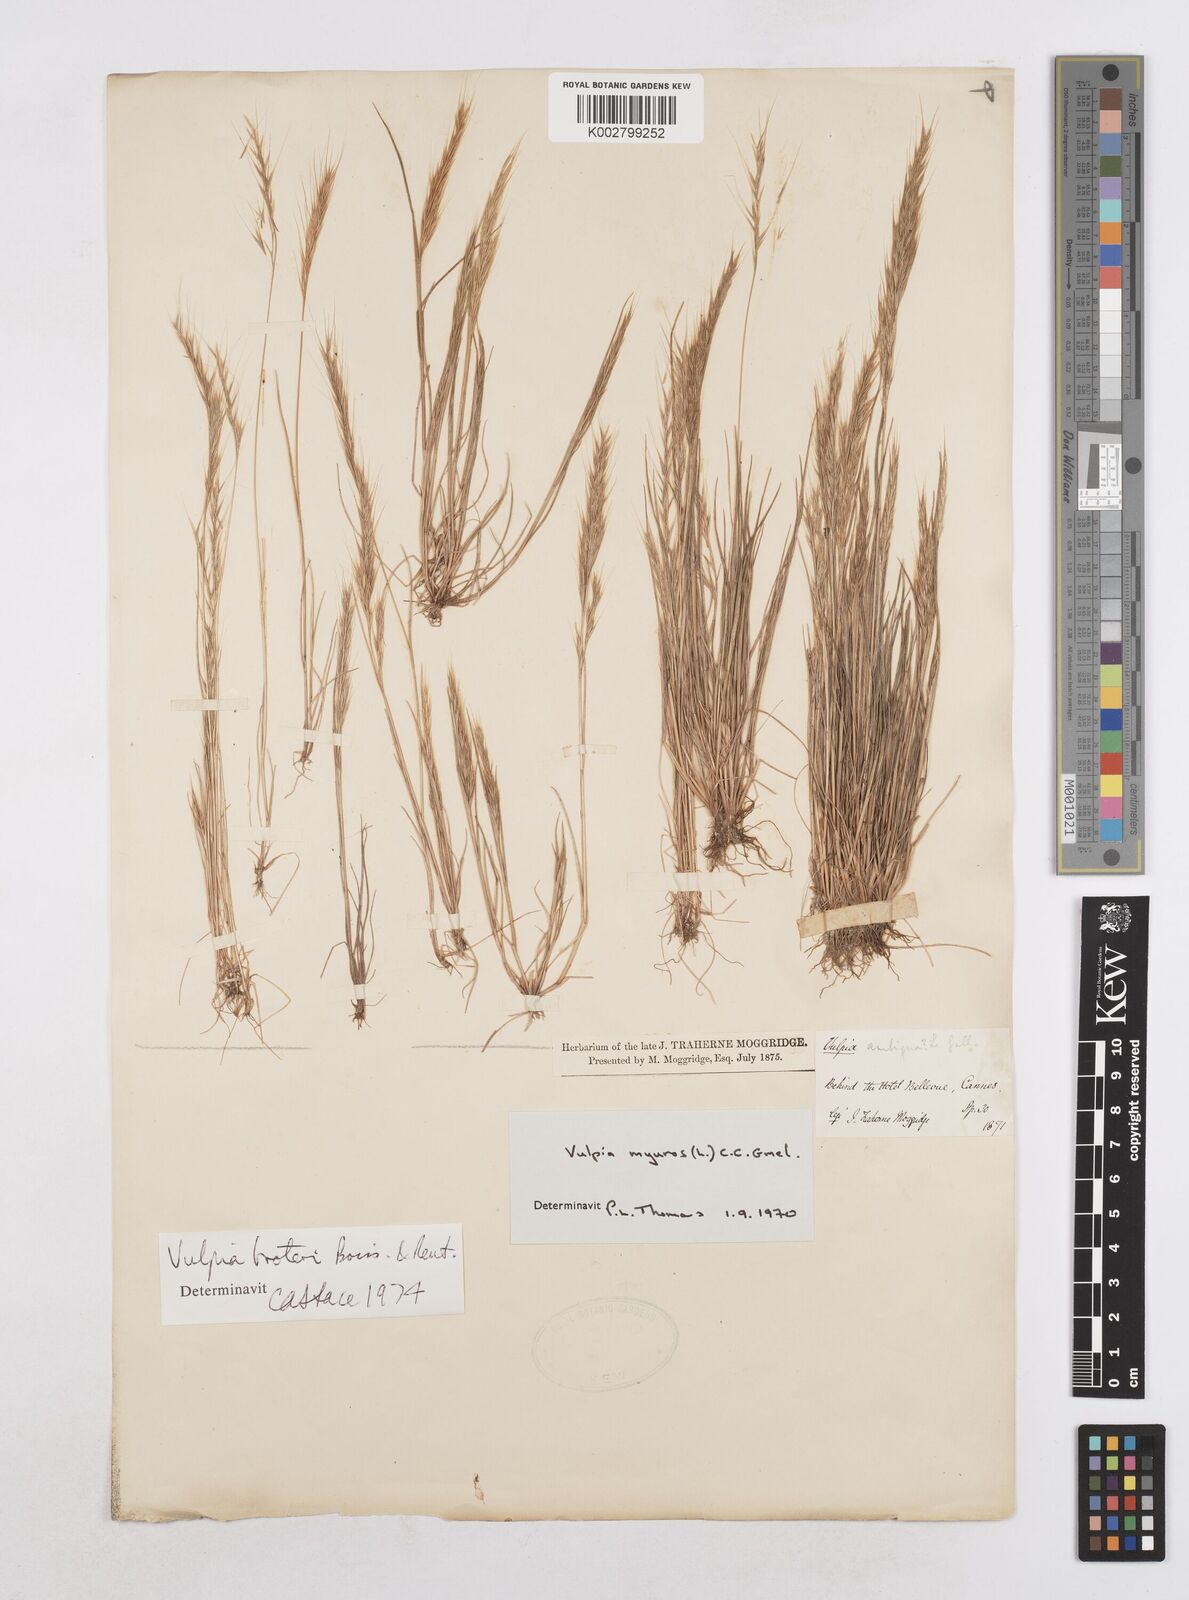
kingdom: Plantae
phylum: Tracheophyta
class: Liliopsida
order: Poales
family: Poaceae
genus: Festuca
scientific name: Festuca muralis
